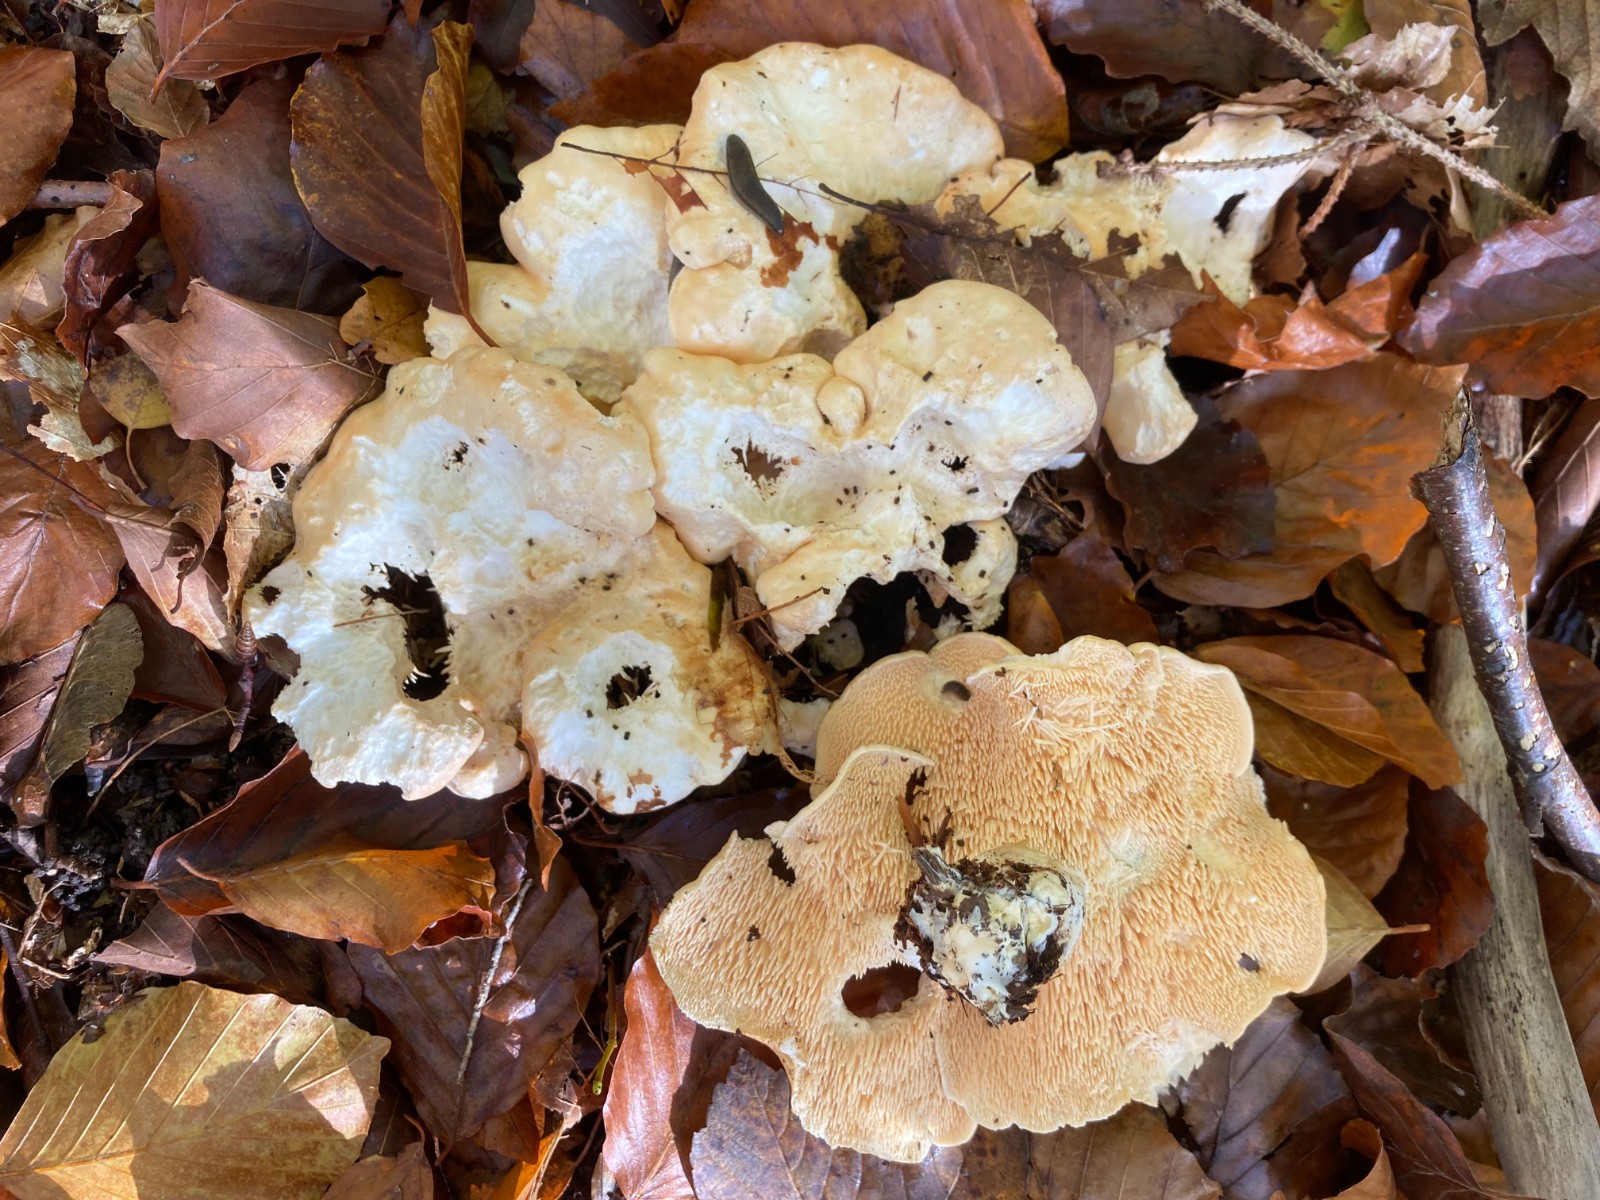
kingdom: Fungi
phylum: Basidiomycota
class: Agaricomycetes
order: Cantharellales
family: Hydnaceae
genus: Hydnum
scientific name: Hydnum repandum
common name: almindelig pigsvamp
